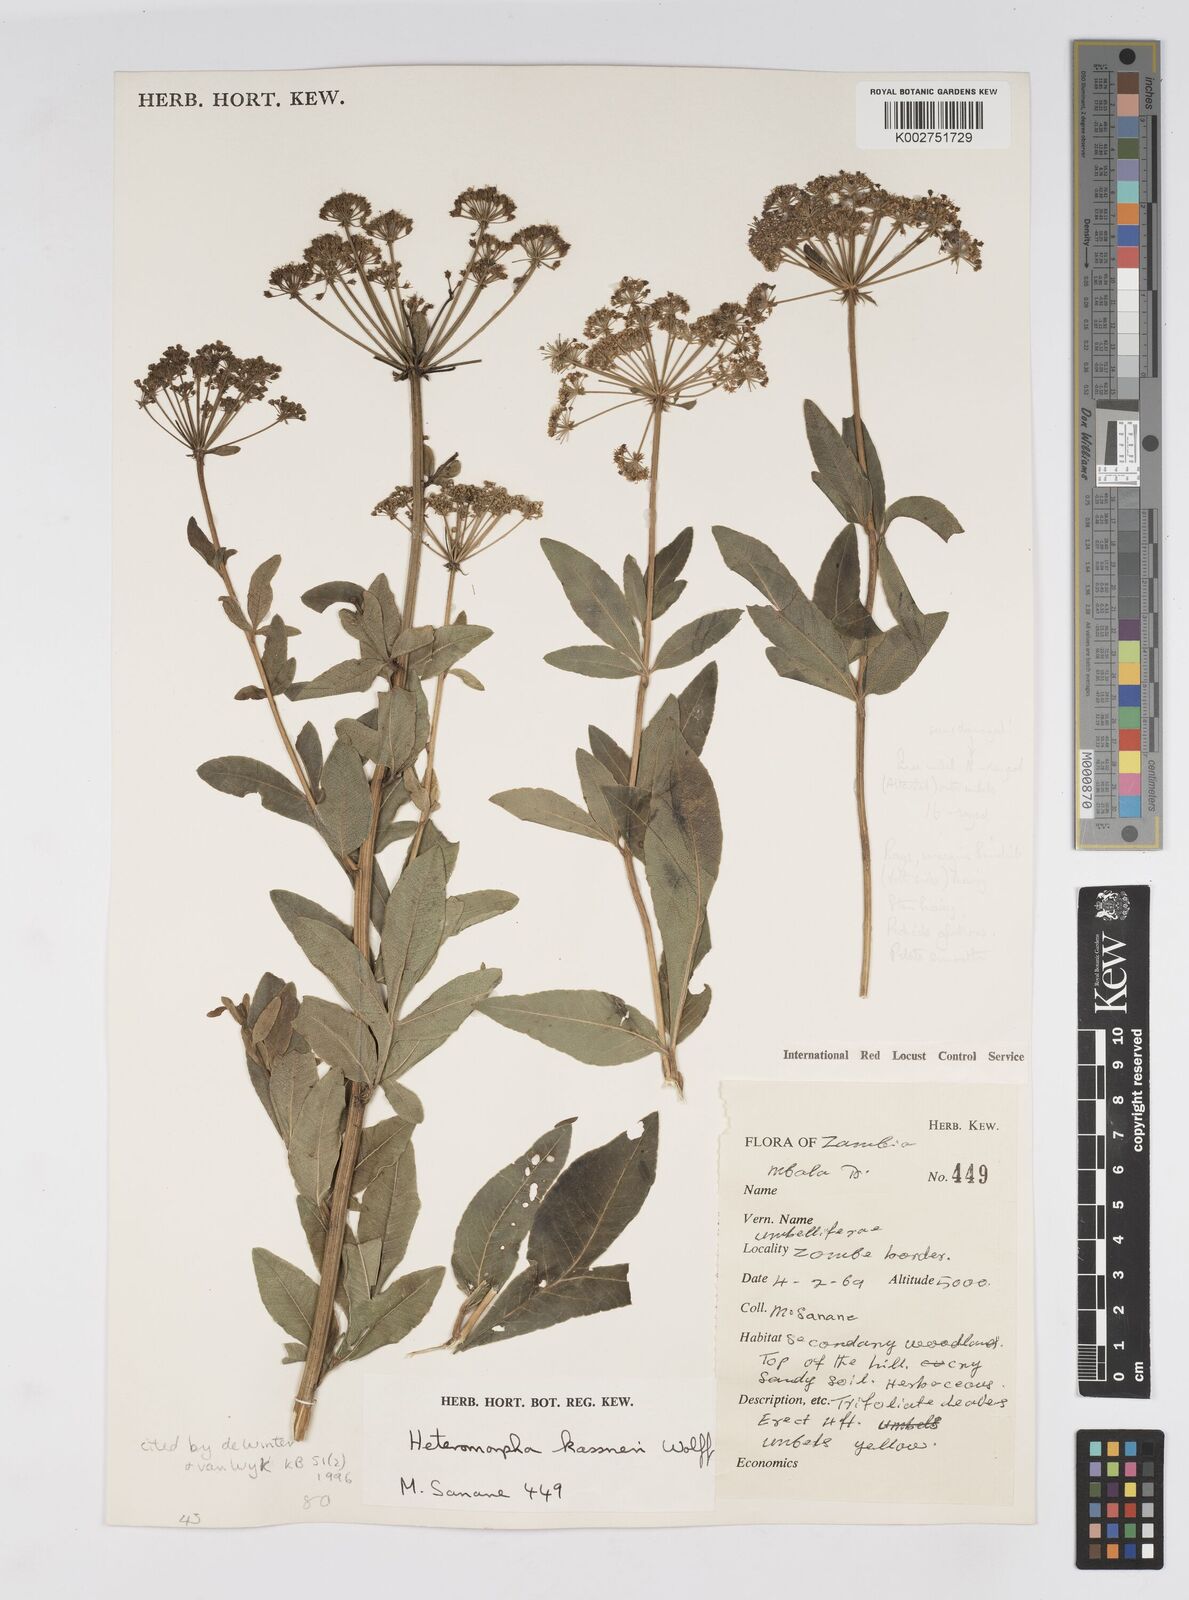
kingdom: Plantae
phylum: Tracheophyta
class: Magnoliopsida
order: Apiales
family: Apiaceae
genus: Heteromorpha
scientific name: Heteromorpha involucrata
